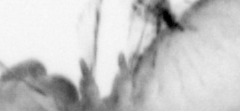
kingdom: Animalia
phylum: Annelida
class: Polychaeta
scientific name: Polychaeta
